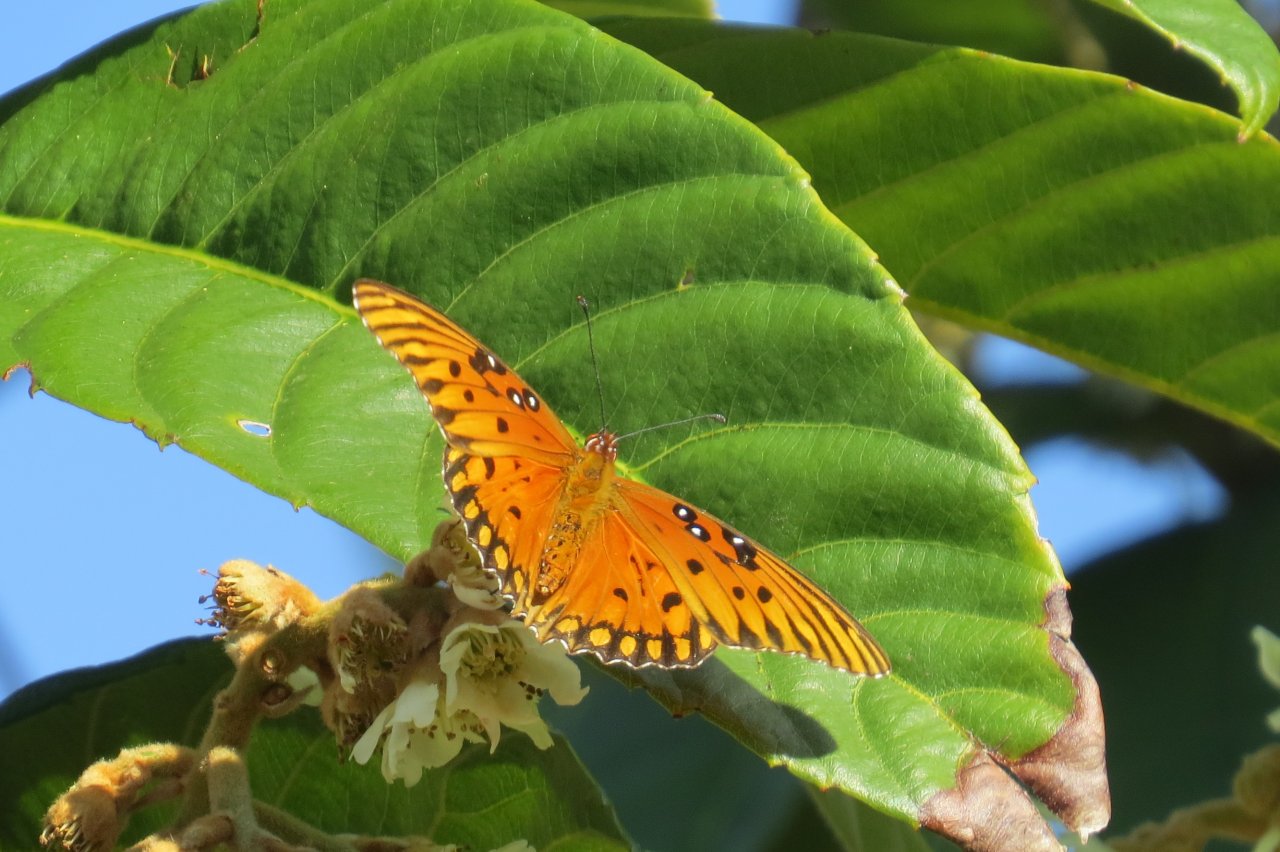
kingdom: Animalia
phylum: Arthropoda
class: Insecta
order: Lepidoptera
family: Nymphalidae
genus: Dione
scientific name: Dione vanillae
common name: Gulf Fritillary
